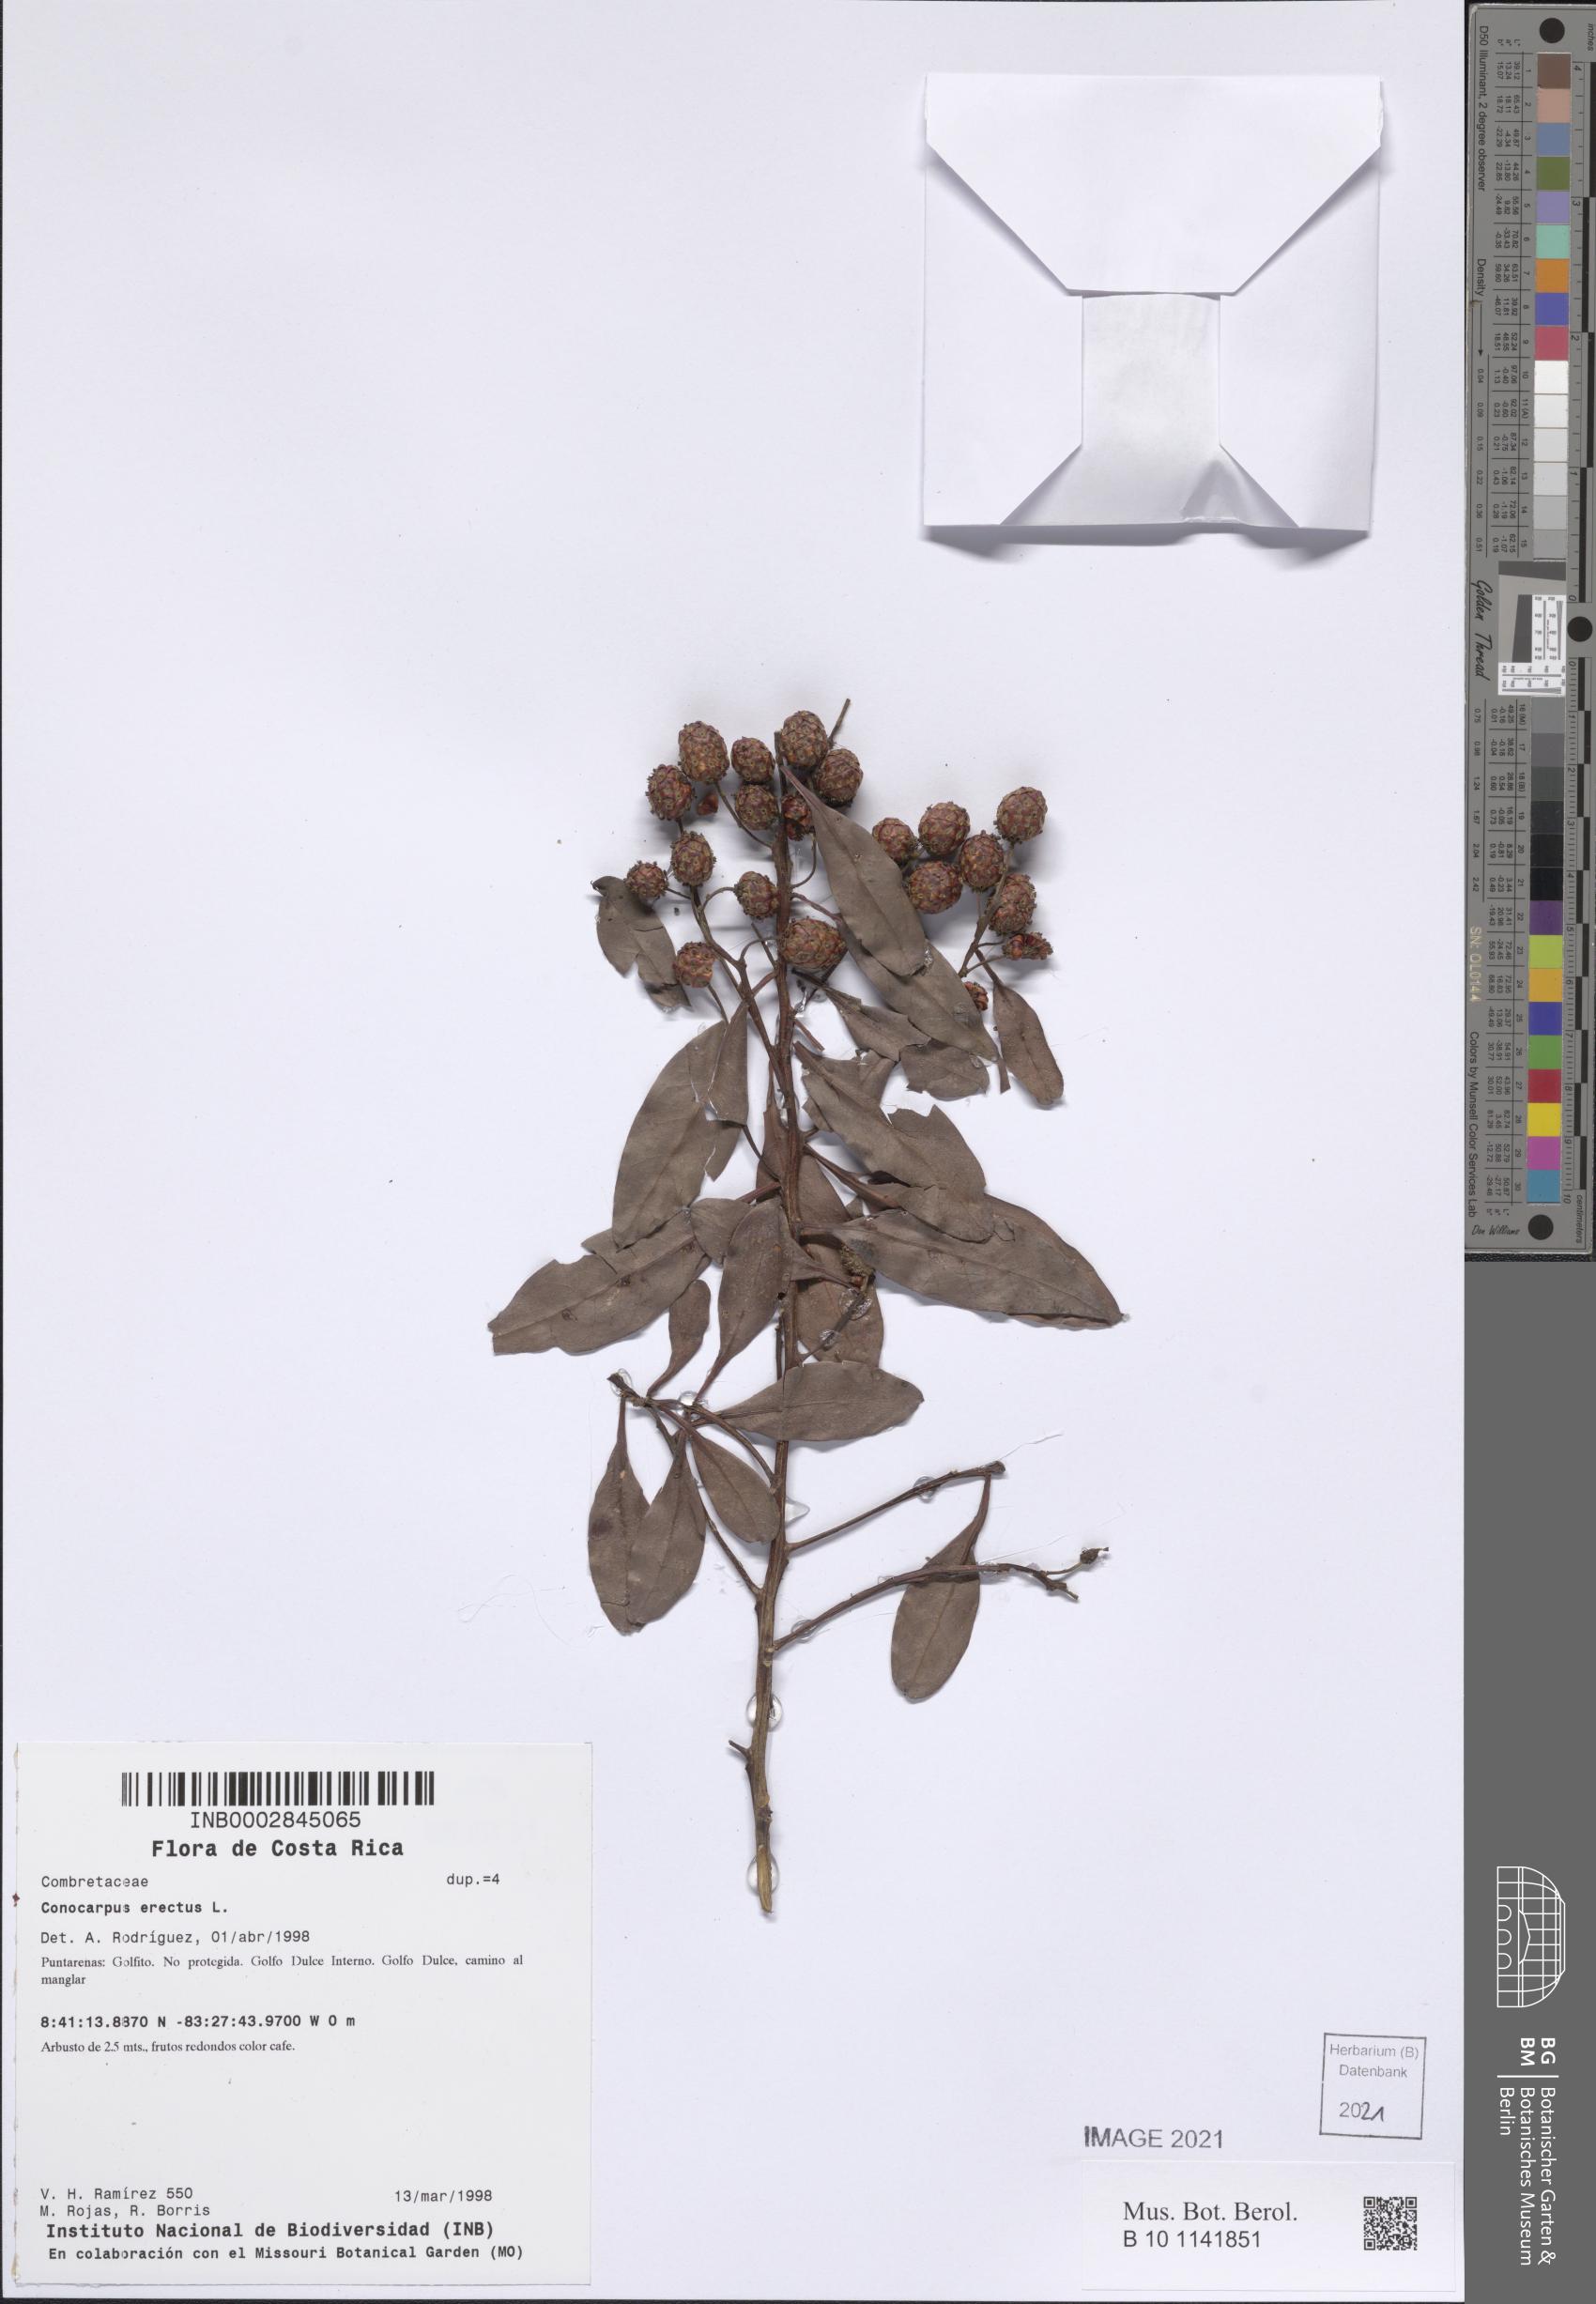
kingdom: Plantae
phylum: Tracheophyta
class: Magnoliopsida
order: Myrtales
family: Combretaceae
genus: Conocarpus
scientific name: Conocarpus erectus
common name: Button mangrove
